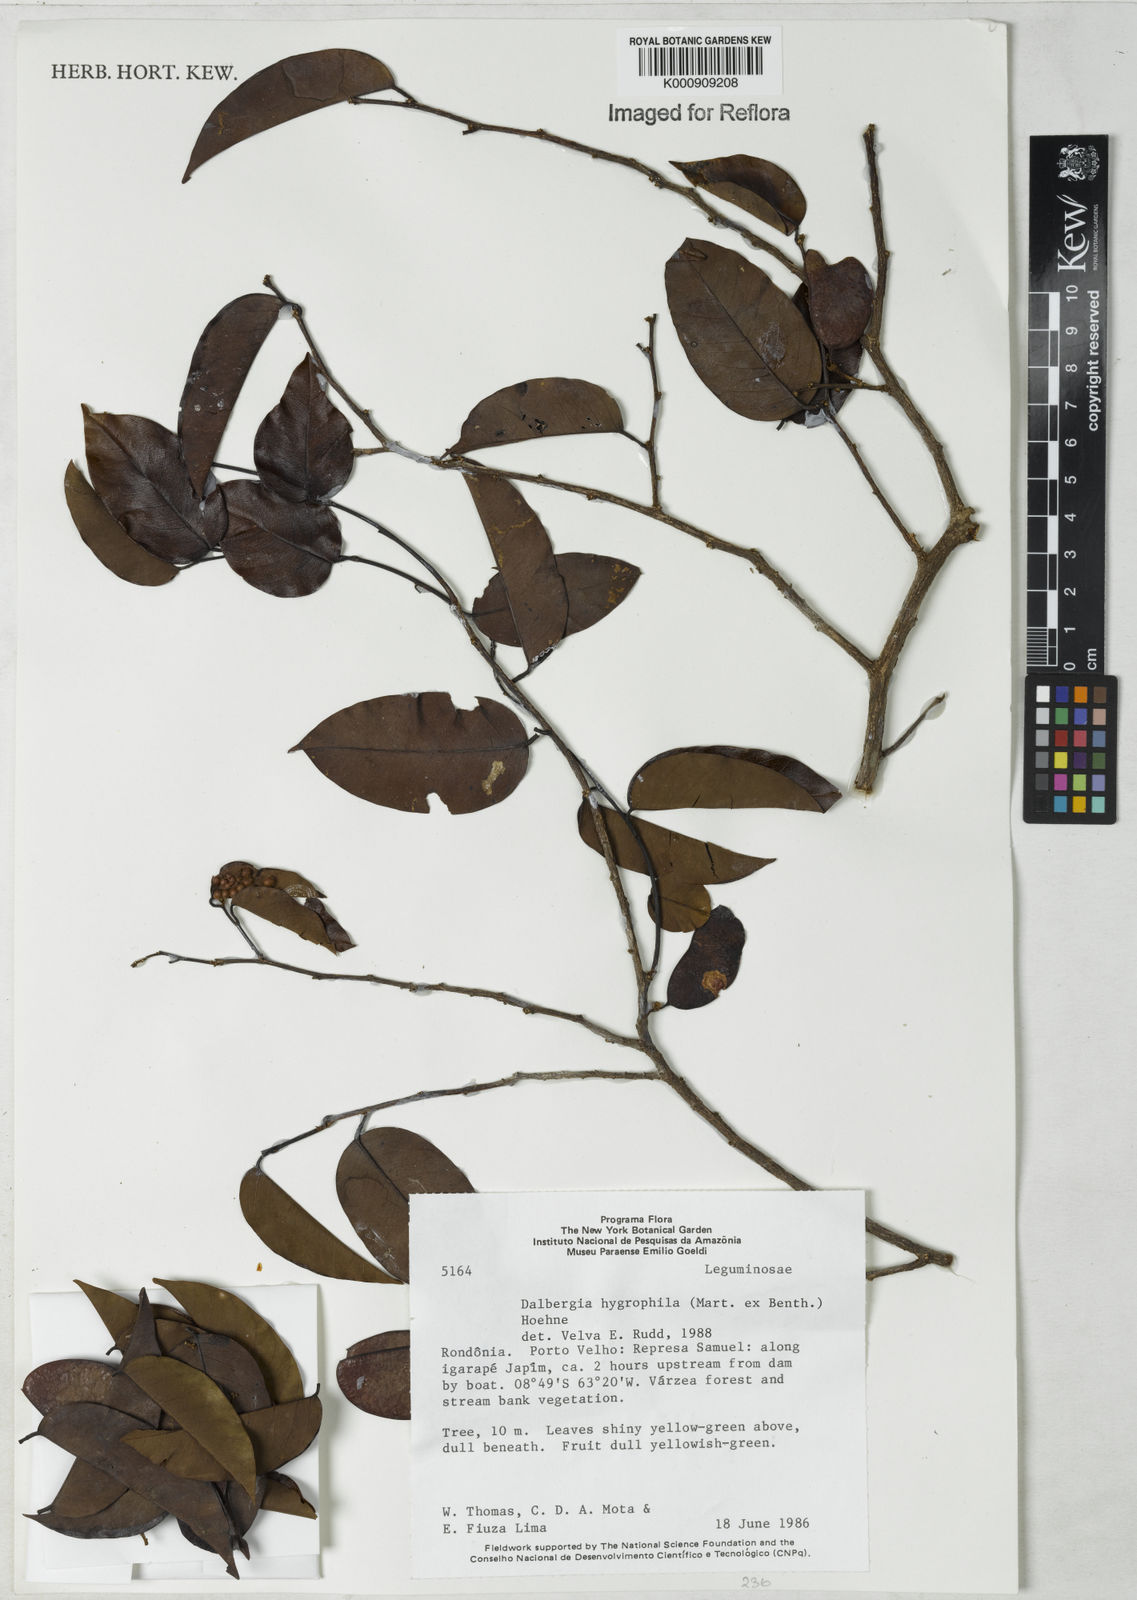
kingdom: Plantae
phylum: Tracheophyta
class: Magnoliopsida
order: Fabales
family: Fabaceae
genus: Dalbergia
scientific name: Dalbergia hygrophila
